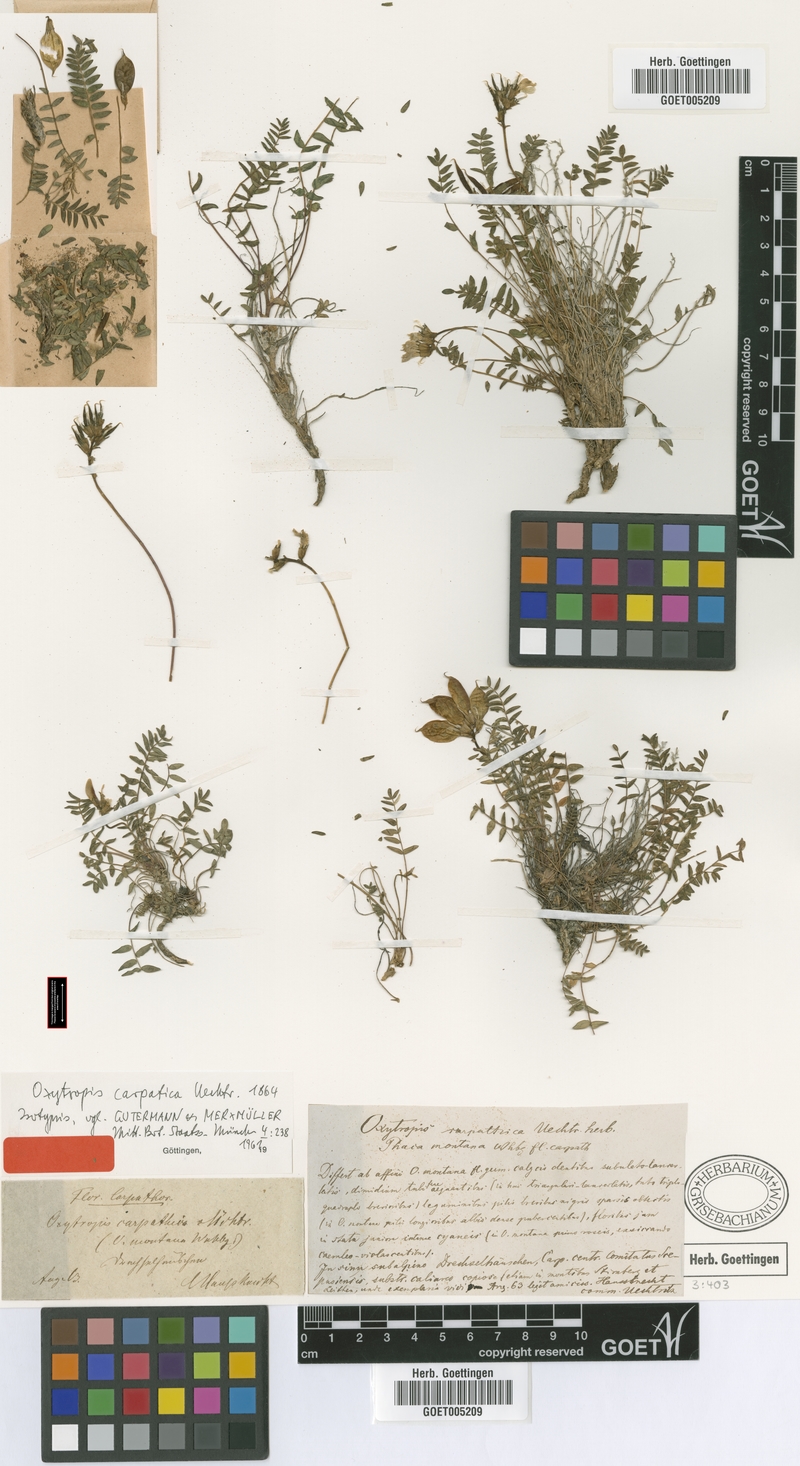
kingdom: Plantae
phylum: Tracheophyta
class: Magnoliopsida
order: Fabales
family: Fabaceae
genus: Oxytropis
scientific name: Oxytropis carpatica
